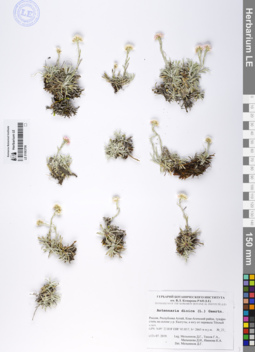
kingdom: Plantae
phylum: Tracheophyta
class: Magnoliopsida
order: Asterales
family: Asteraceae
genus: Antennaria
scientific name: Antennaria dioica
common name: Mountain everlasting
